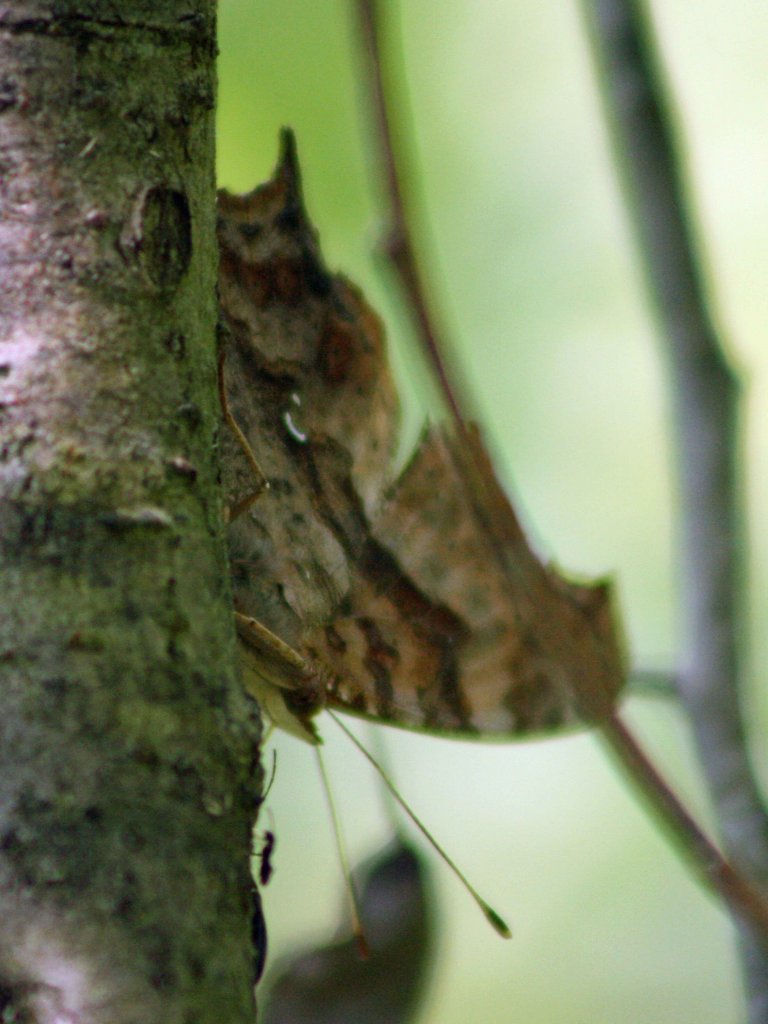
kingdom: Animalia
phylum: Arthropoda
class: Insecta
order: Lepidoptera
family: Nymphalidae
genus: Polygonia
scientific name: Polygonia interrogationis
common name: Question Mark
